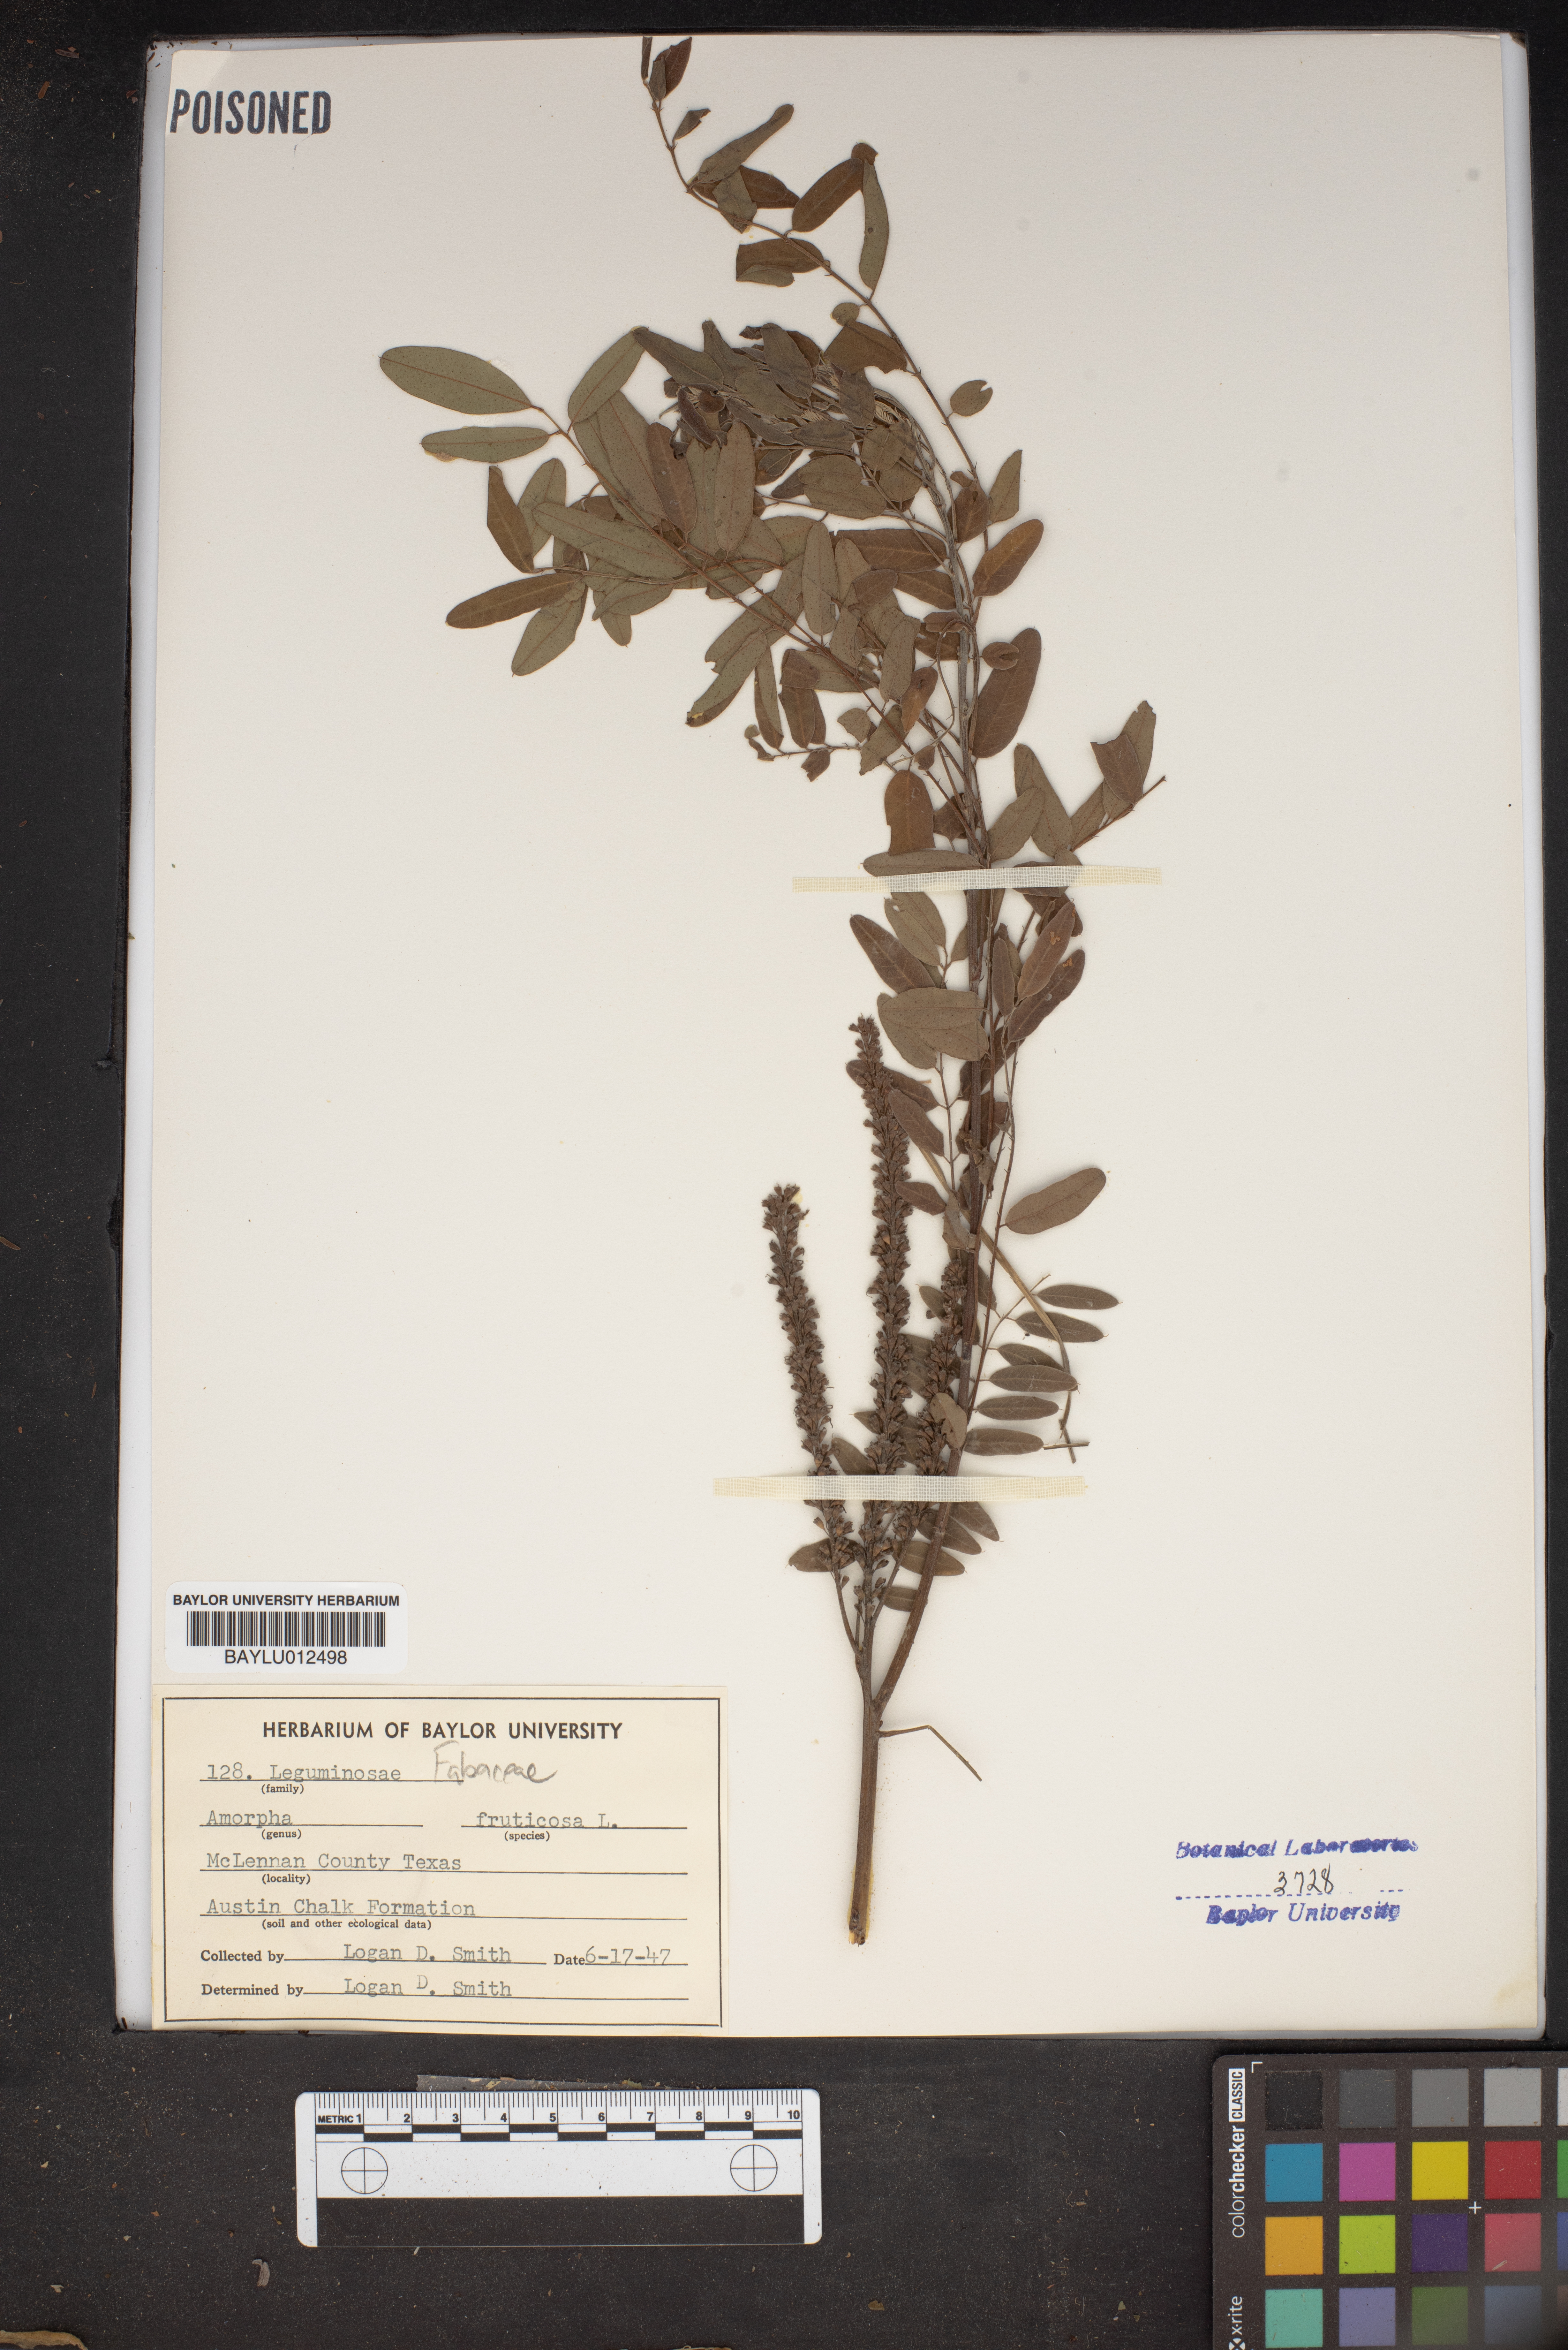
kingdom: Plantae
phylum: Tracheophyta
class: Magnoliopsida
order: Fabales
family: Fabaceae
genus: Amorpha
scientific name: Amorpha fruticosa
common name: False indigo
